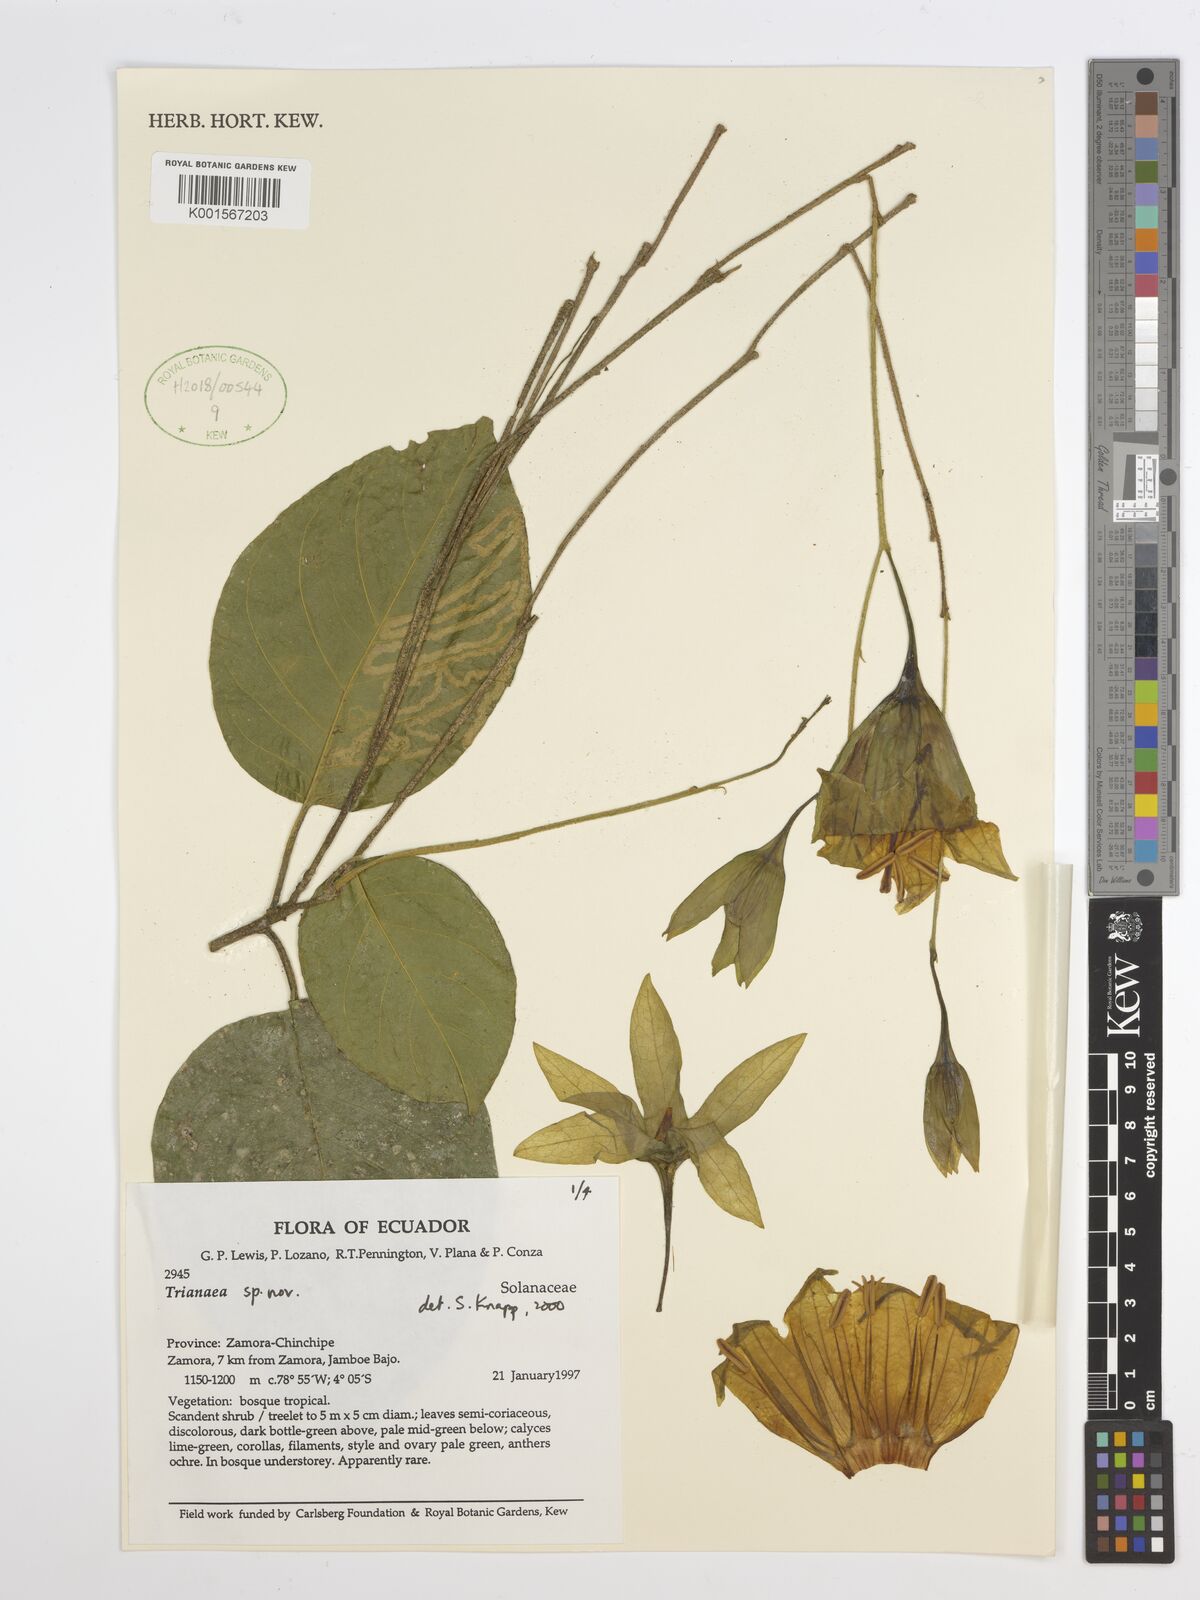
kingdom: Plantae
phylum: Tracheophyta
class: Magnoliopsida
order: Solanales
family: Solanaceae
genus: Trianaea
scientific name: Trianaea
